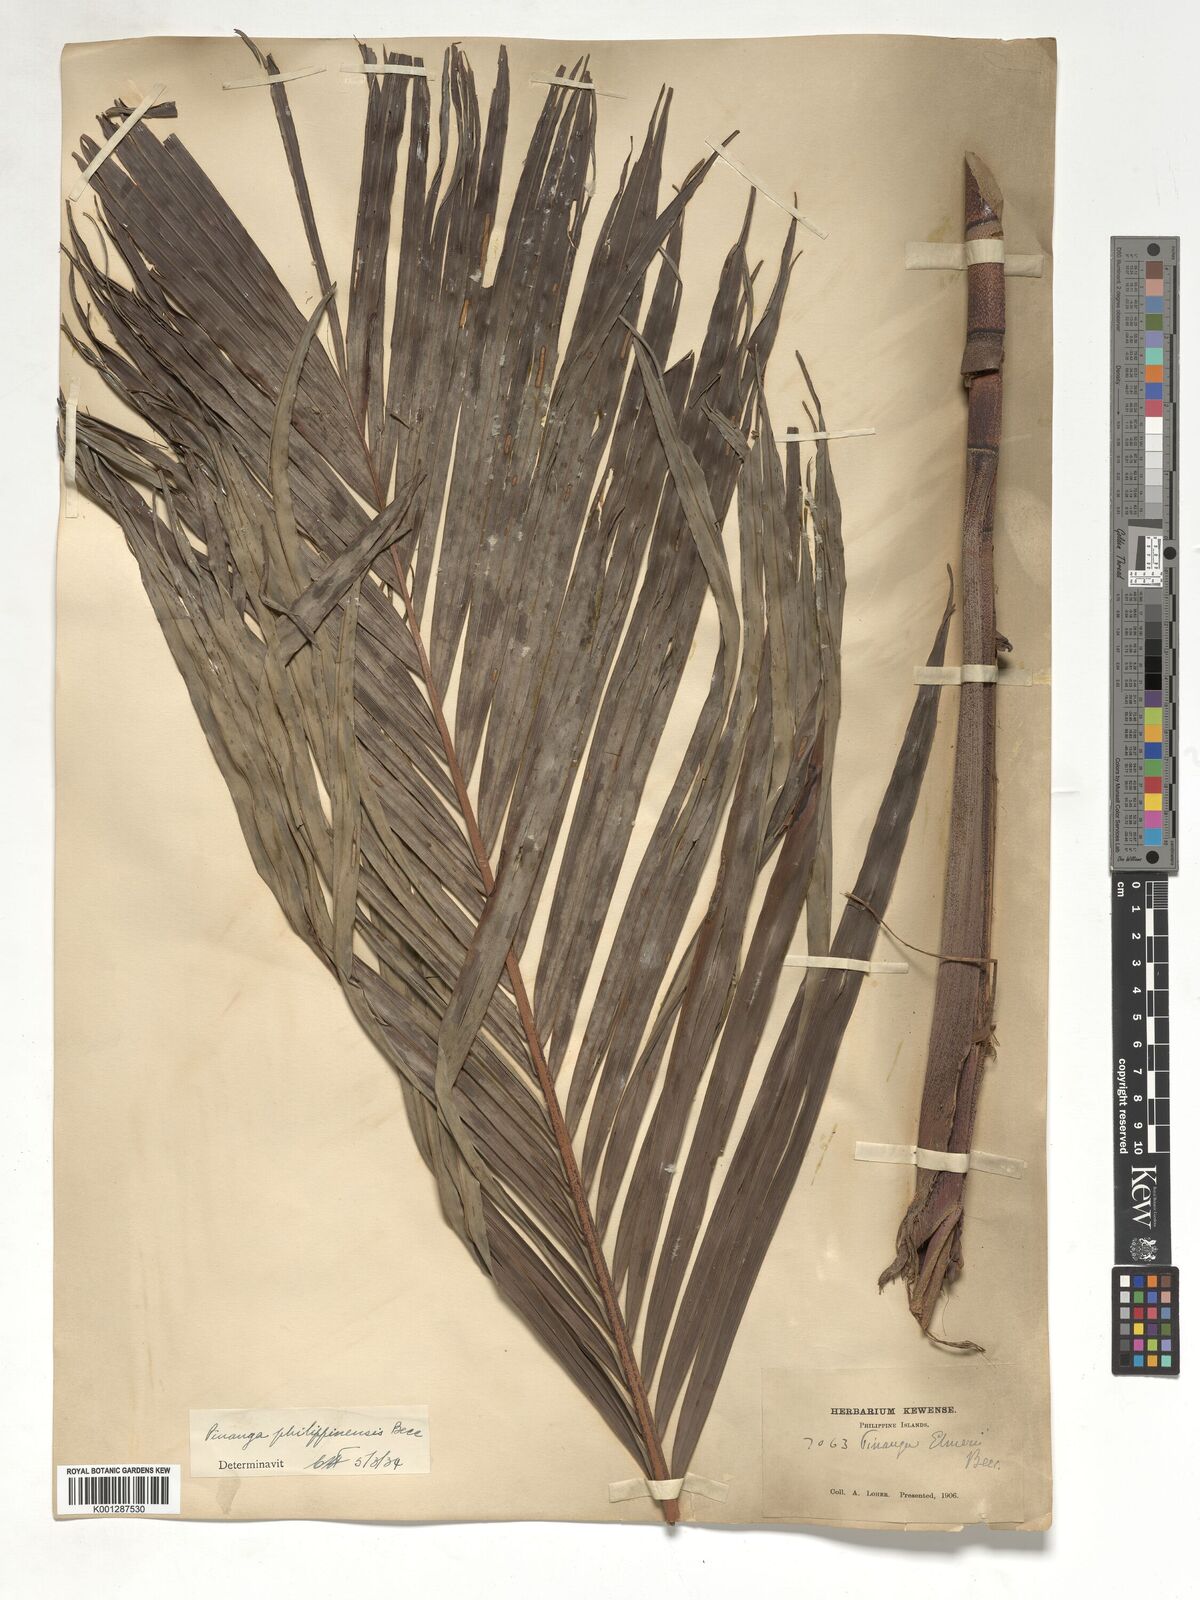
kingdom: Plantae
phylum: Tracheophyta
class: Liliopsida
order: Arecales
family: Arecaceae
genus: Pinanga
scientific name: Pinanga philippinensis
